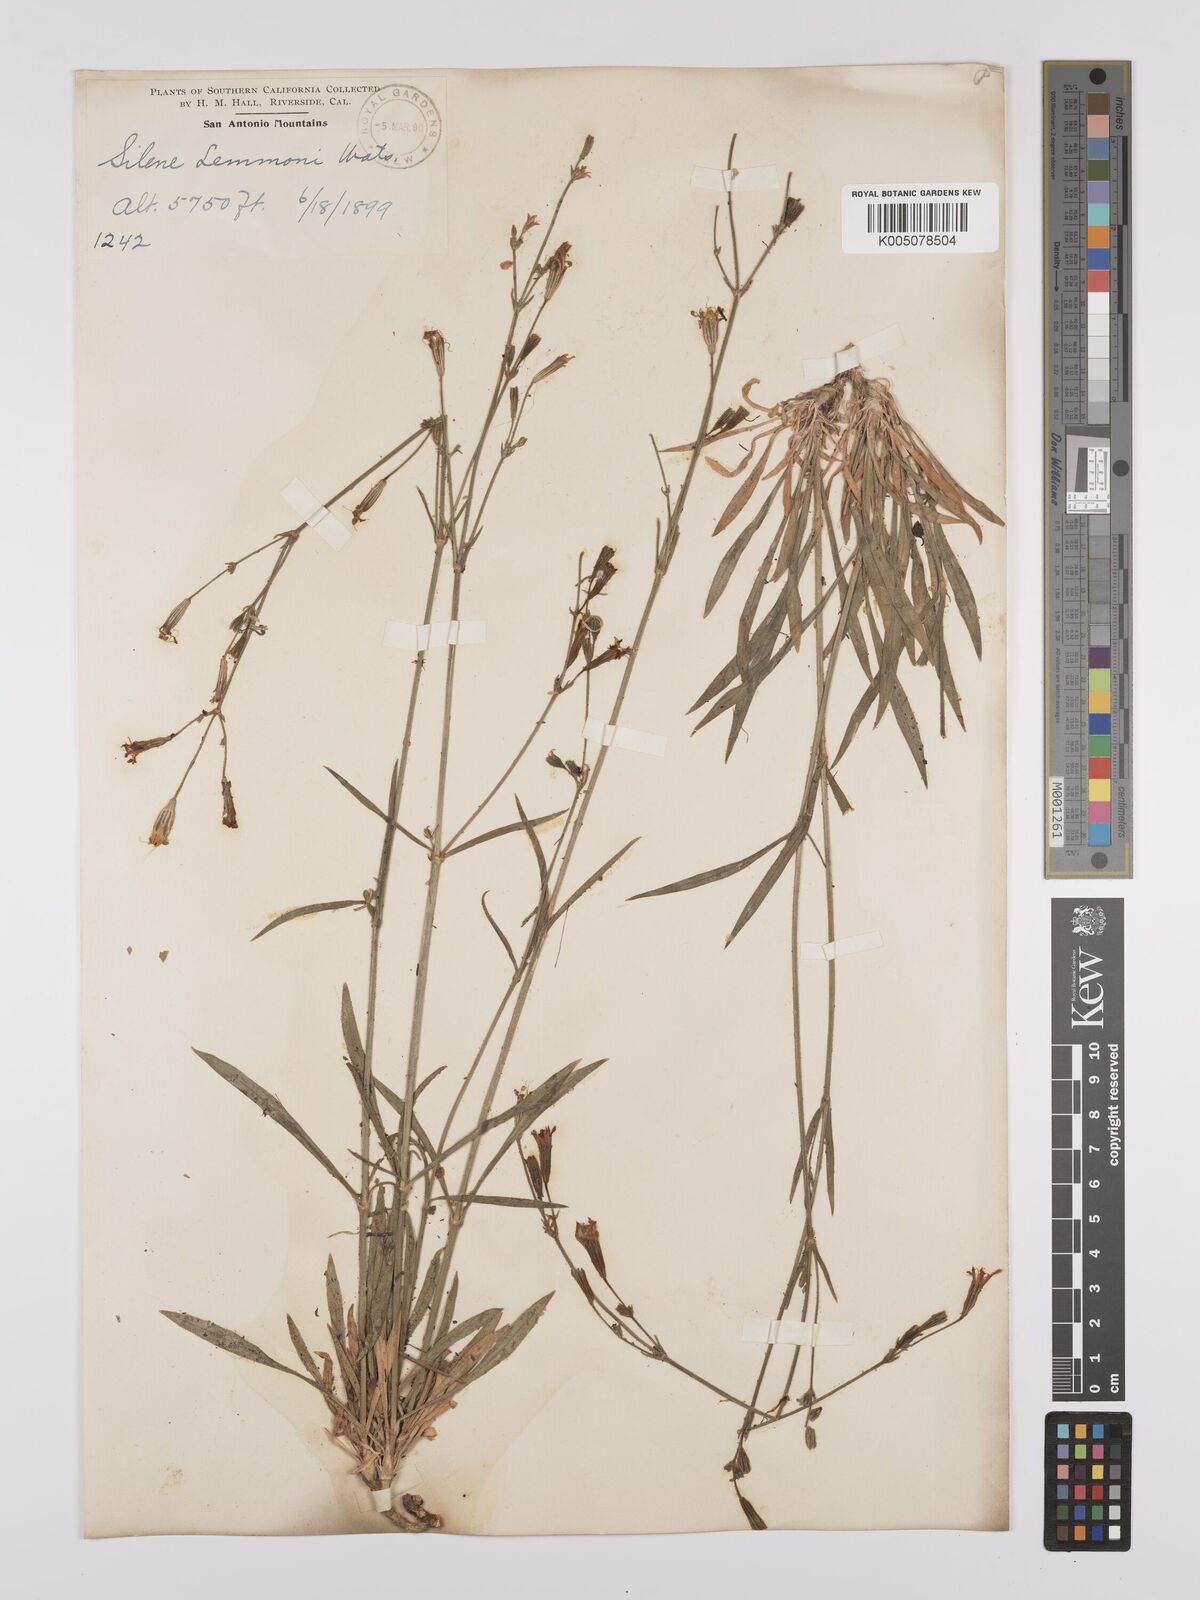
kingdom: Plantae
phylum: Tracheophyta
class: Magnoliopsida
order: Caryophyllales
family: Caryophyllaceae
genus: Silene
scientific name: Silene lemmonii
